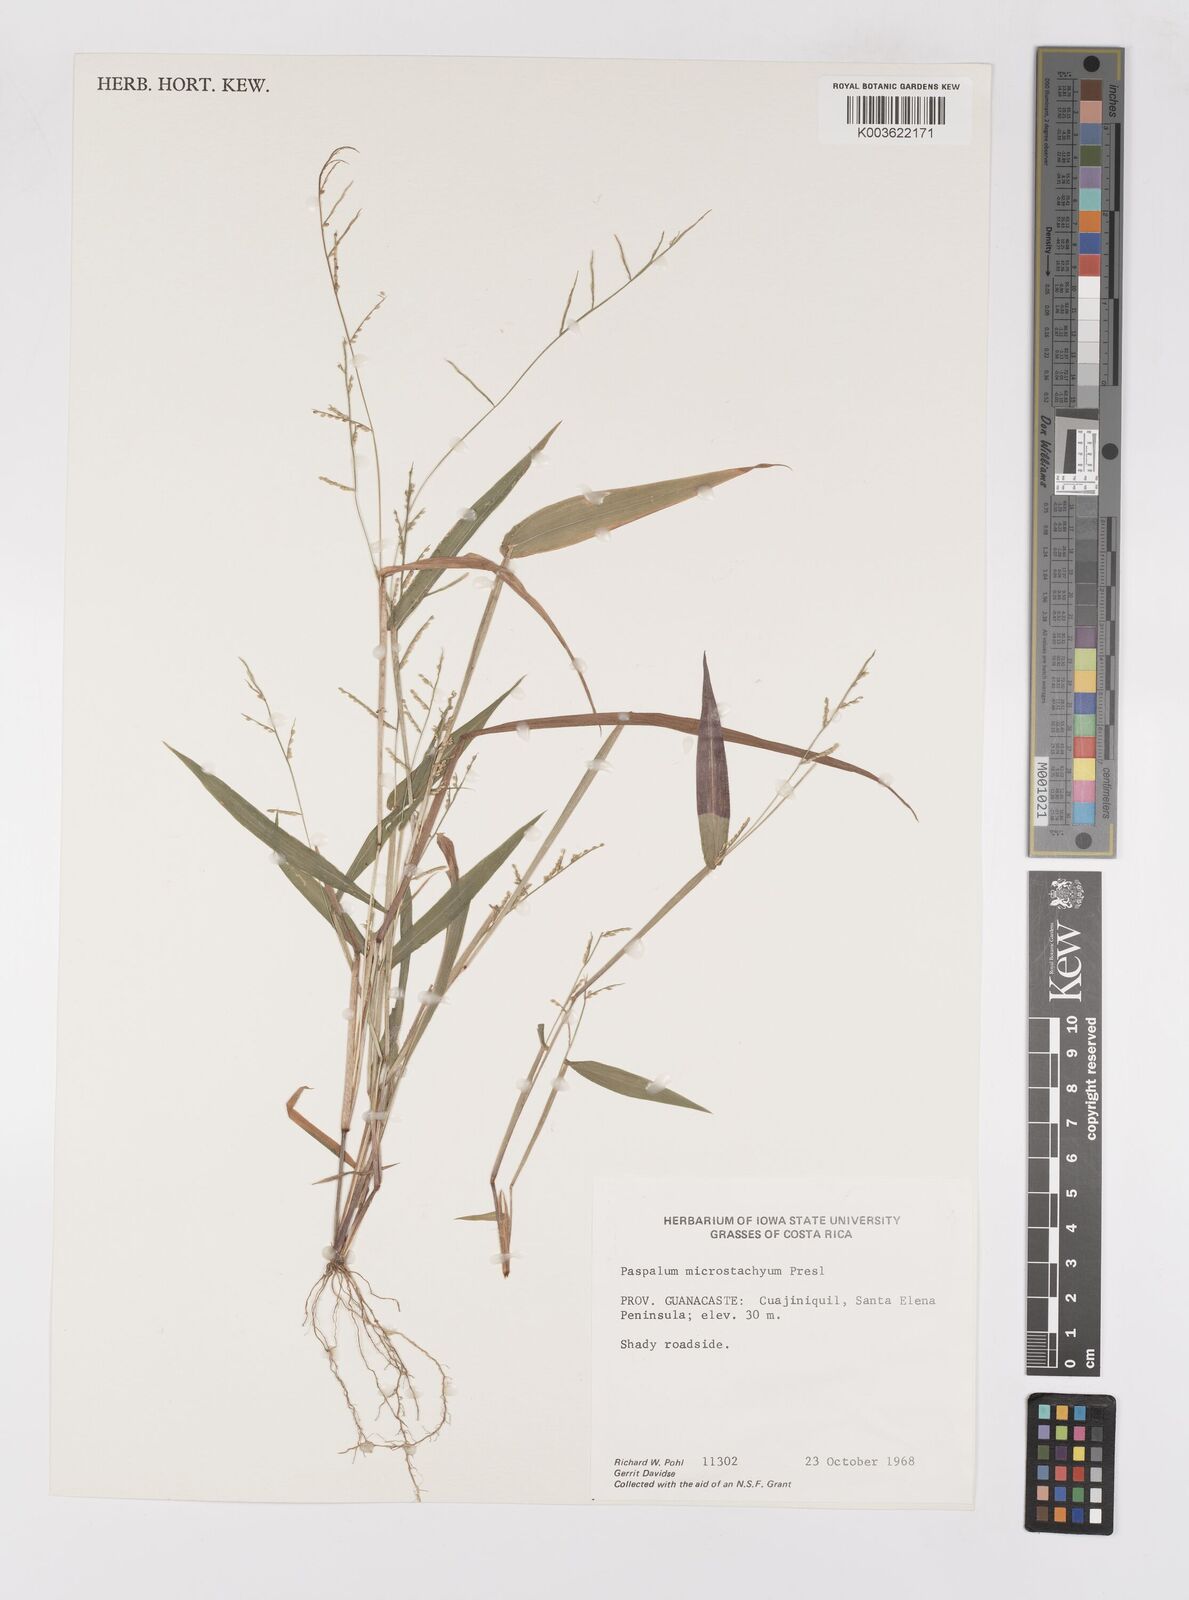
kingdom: Plantae
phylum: Tracheophyta
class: Liliopsida
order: Poales
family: Poaceae
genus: Paspalum
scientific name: Paspalum microstachyum
